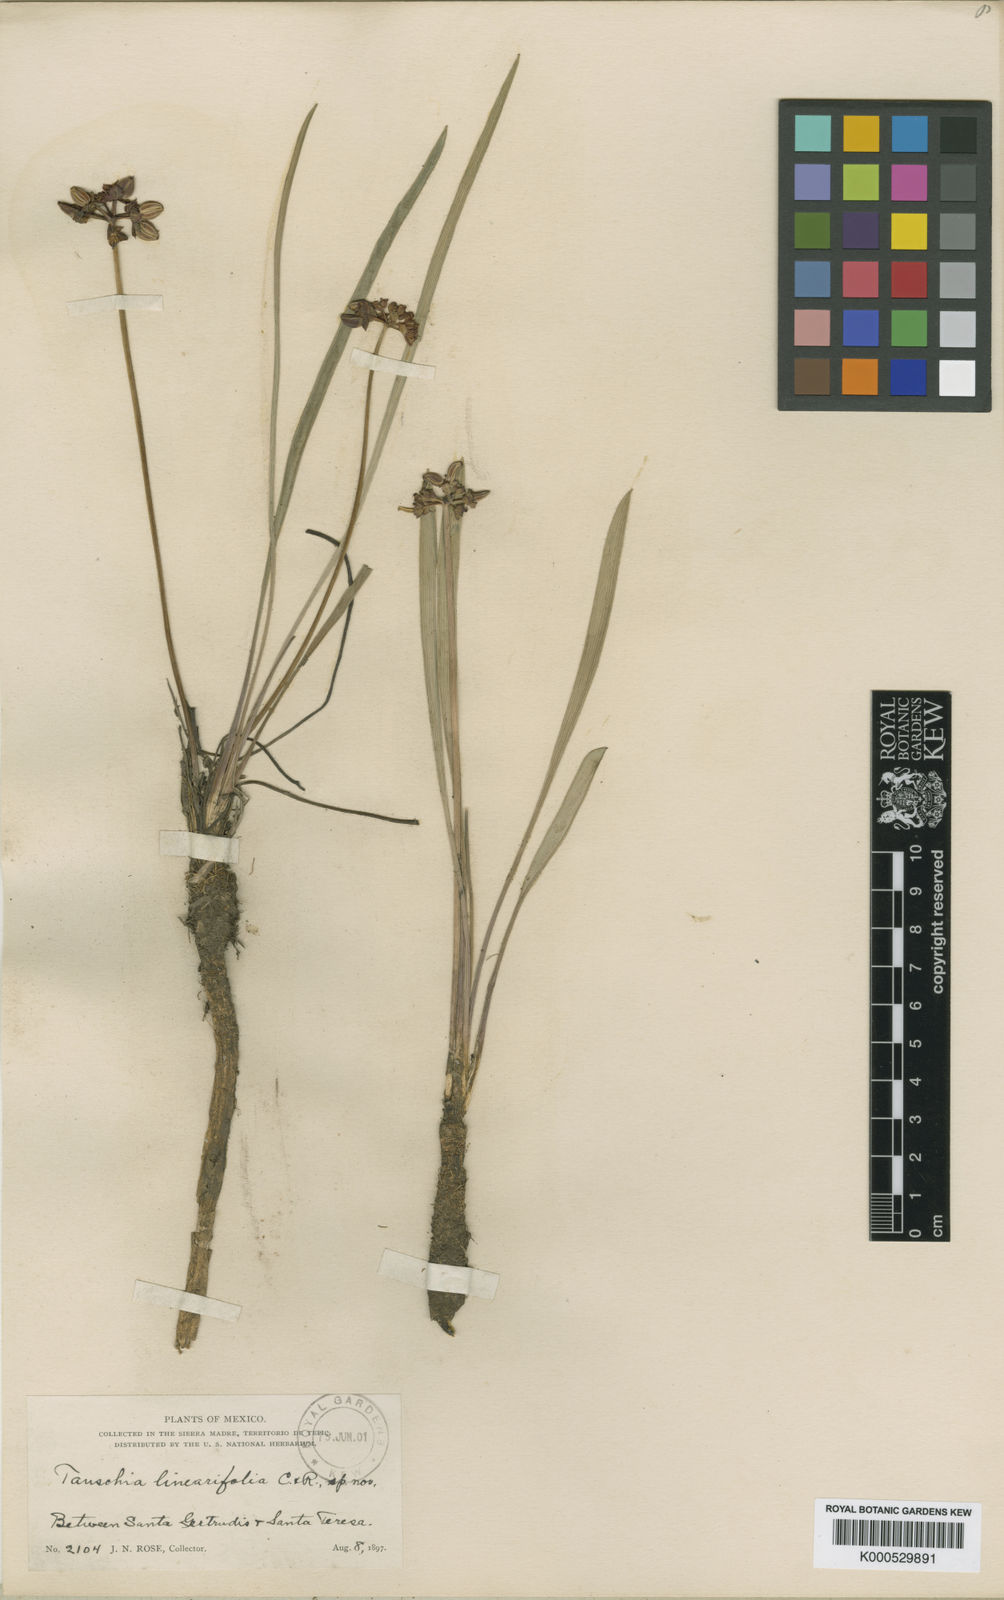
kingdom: Plantae
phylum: Tracheophyta
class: Magnoliopsida
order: Apiales
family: Apiaceae
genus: Tauschia
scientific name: Tauschia linearifolia
